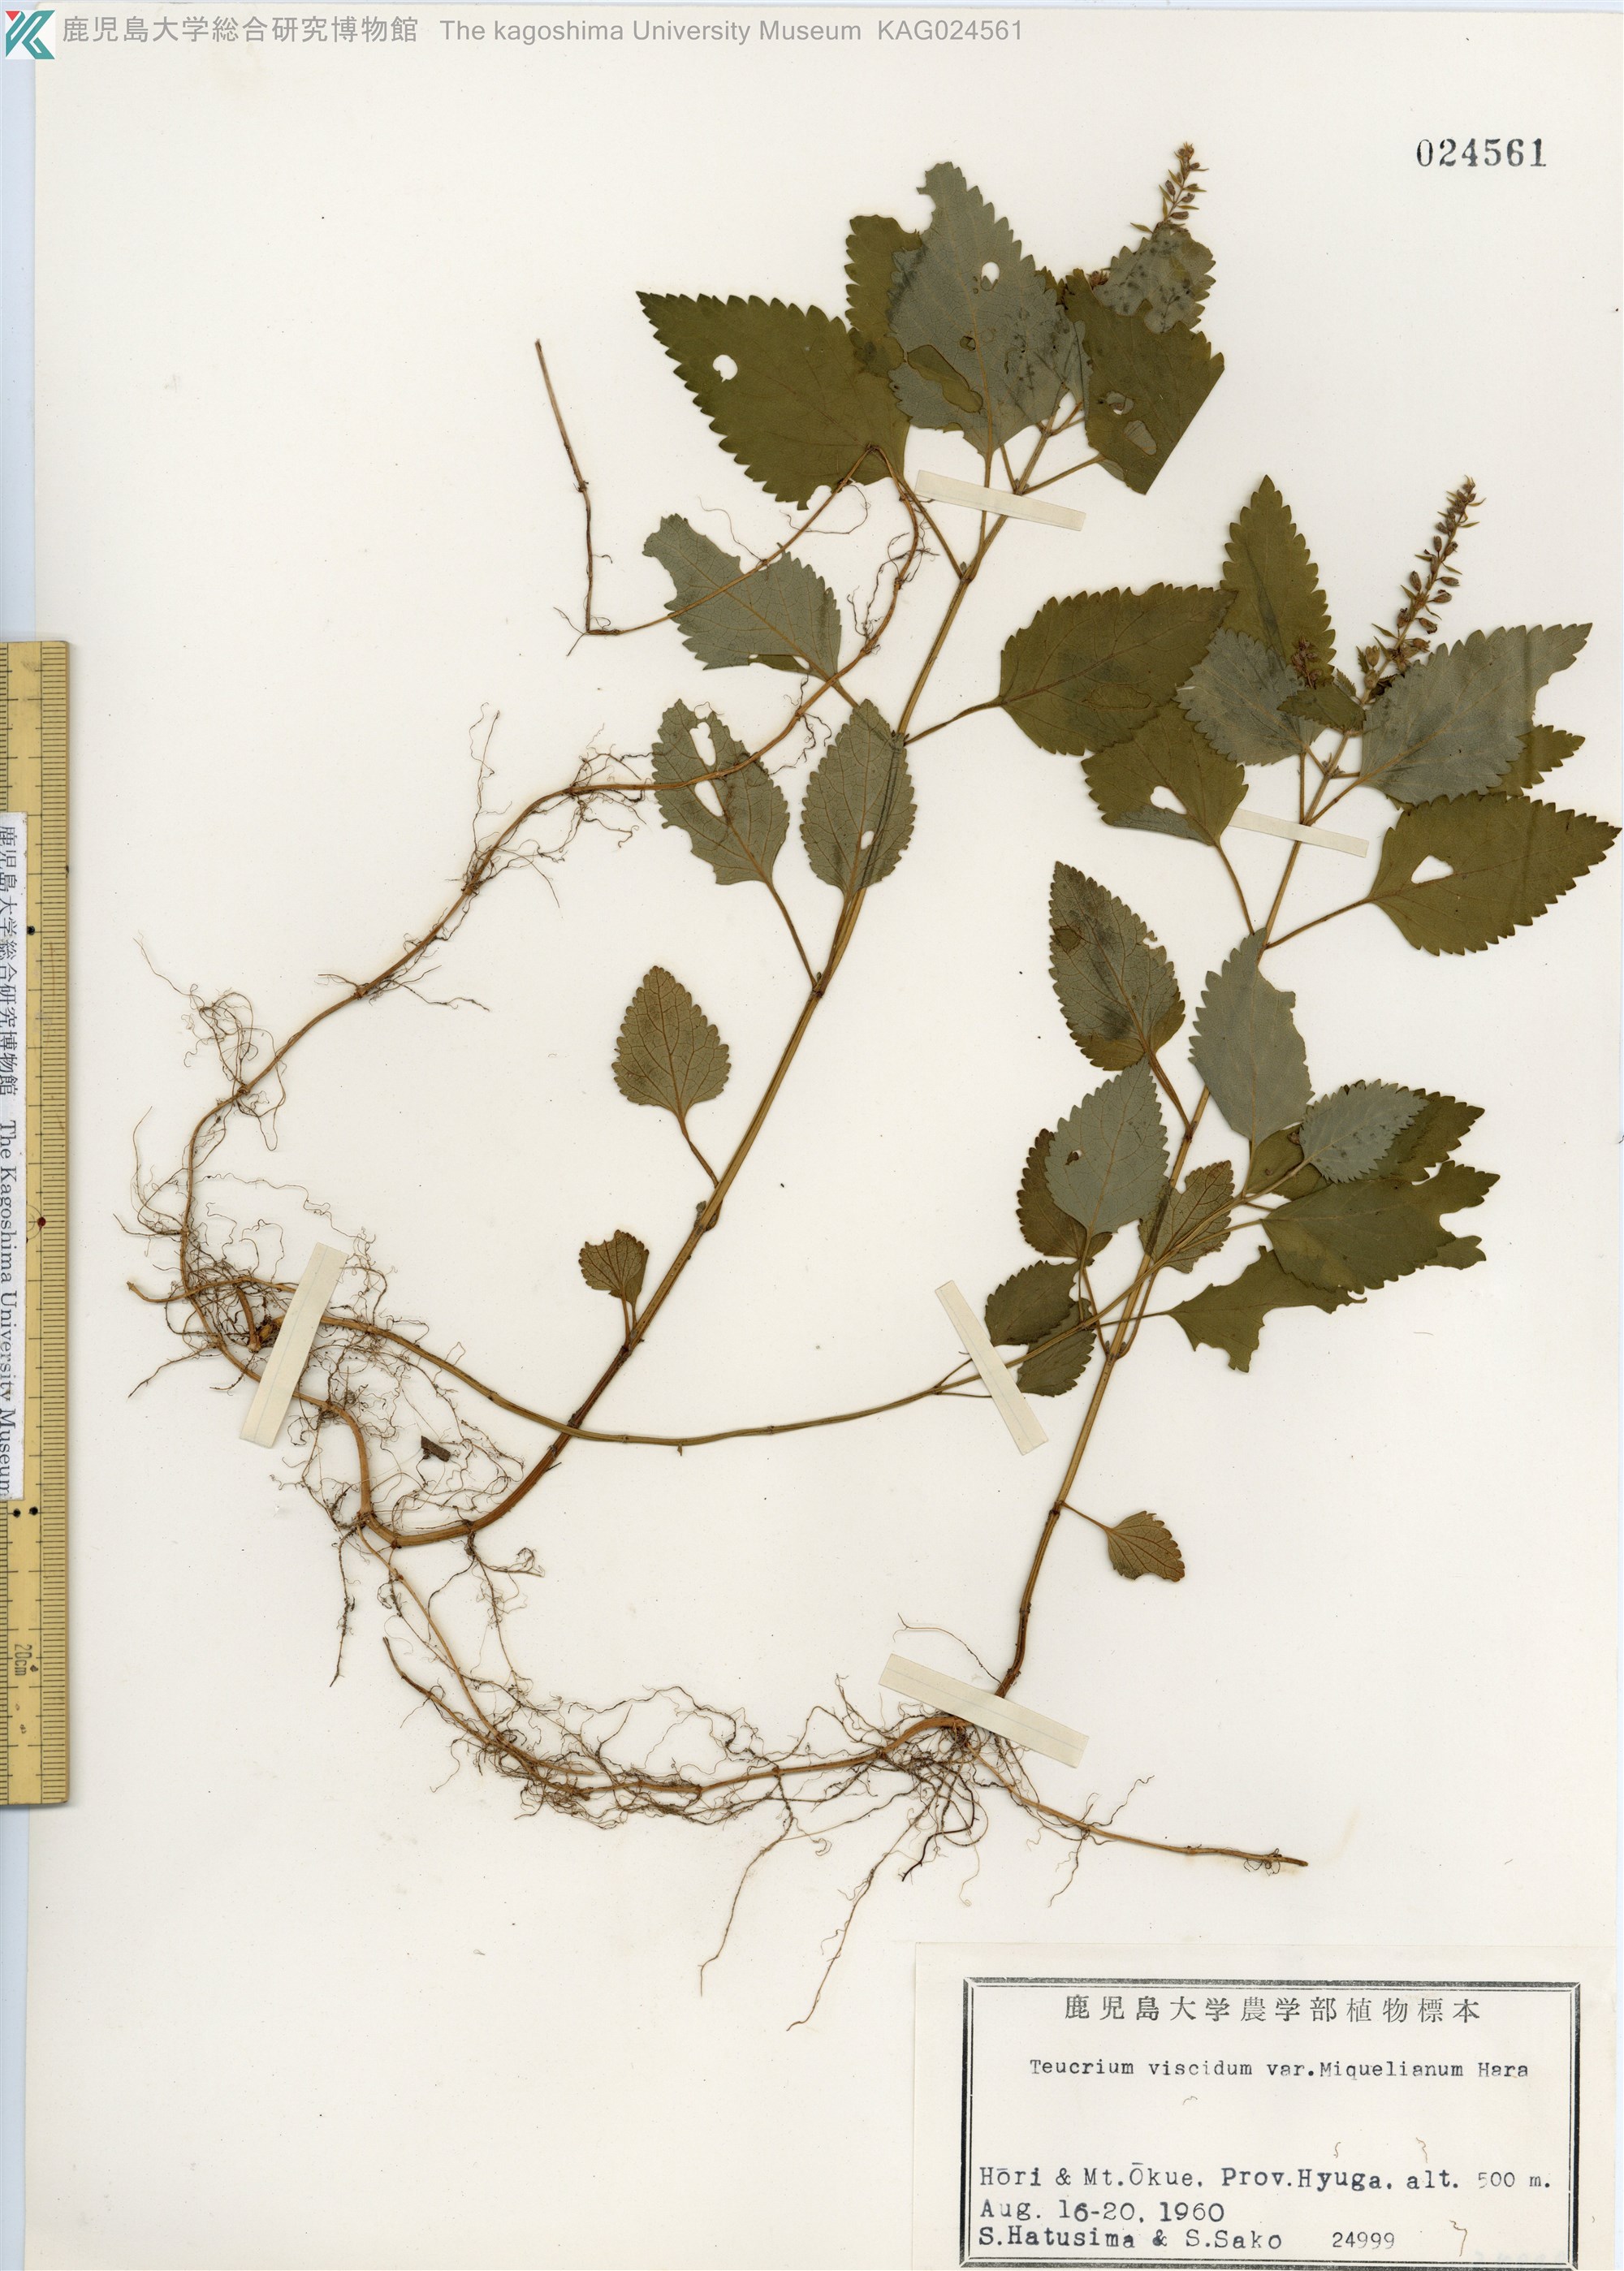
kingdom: Plantae
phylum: Tracheophyta
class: Magnoliopsida
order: Lamiales
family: Lamiaceae
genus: Teucrium
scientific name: Teucrium viscidum
